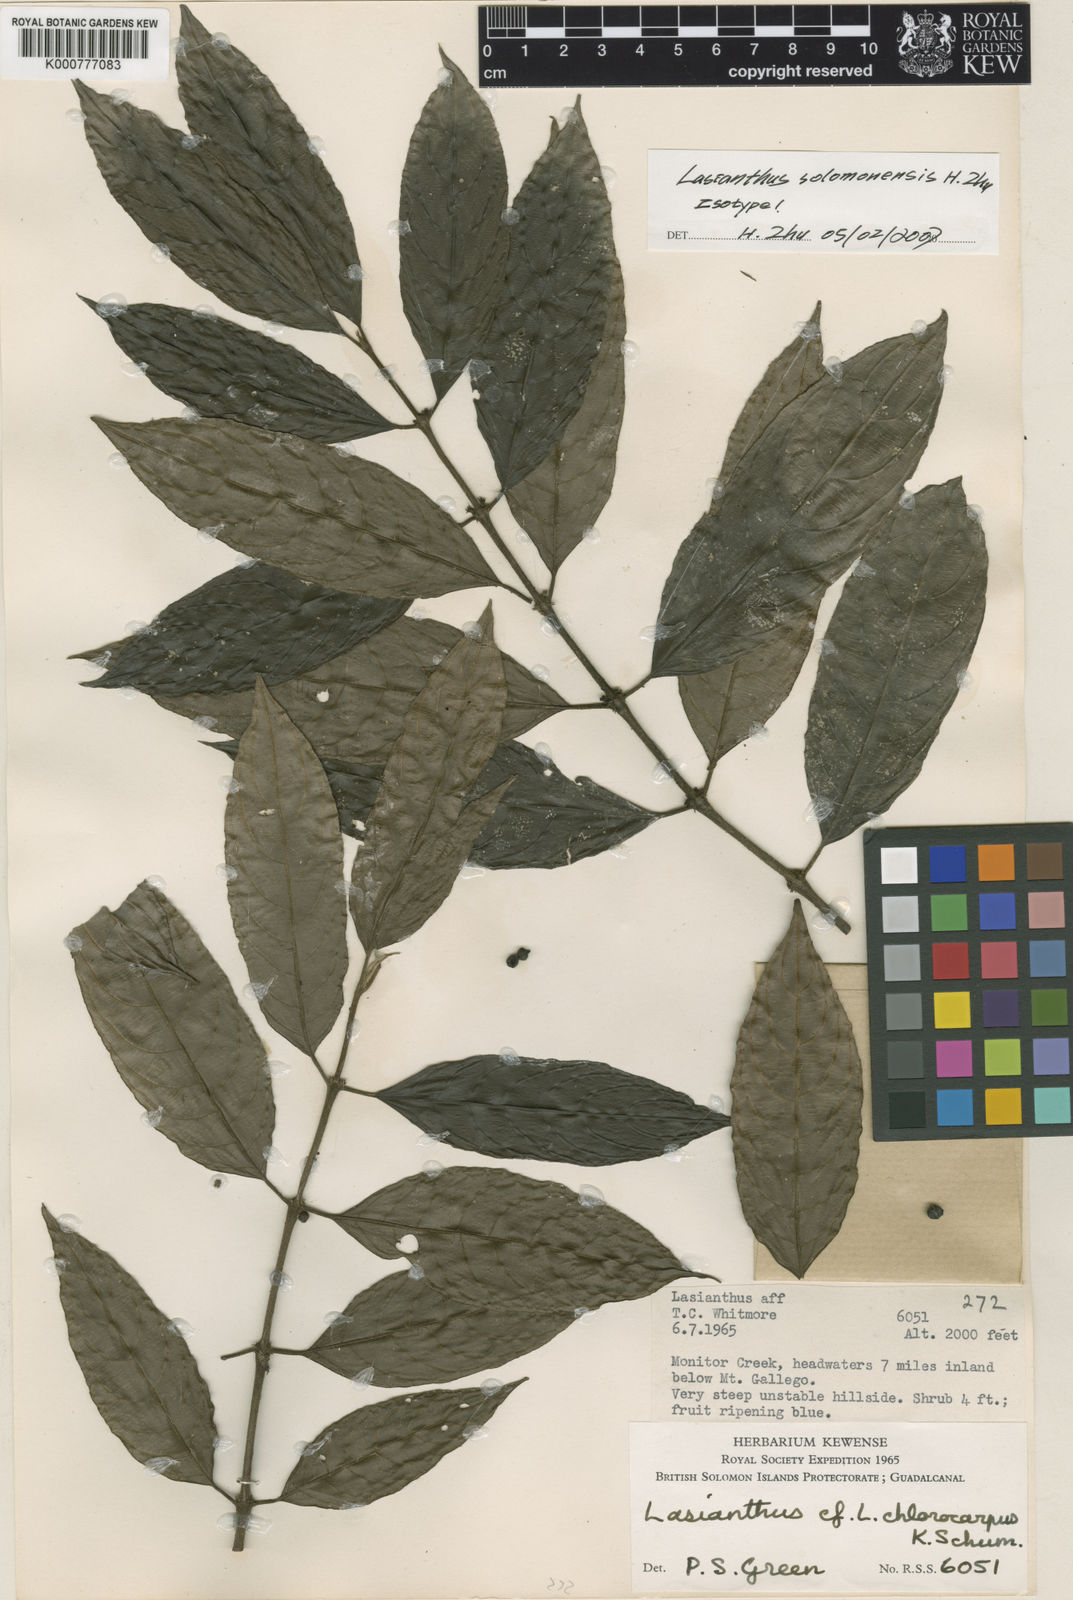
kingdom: Plantae
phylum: Tracheophyta
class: Magnoliopsida
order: Gentianales
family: Rubiaceae
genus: Lasianthus
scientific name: Lasianthus solomonensis
